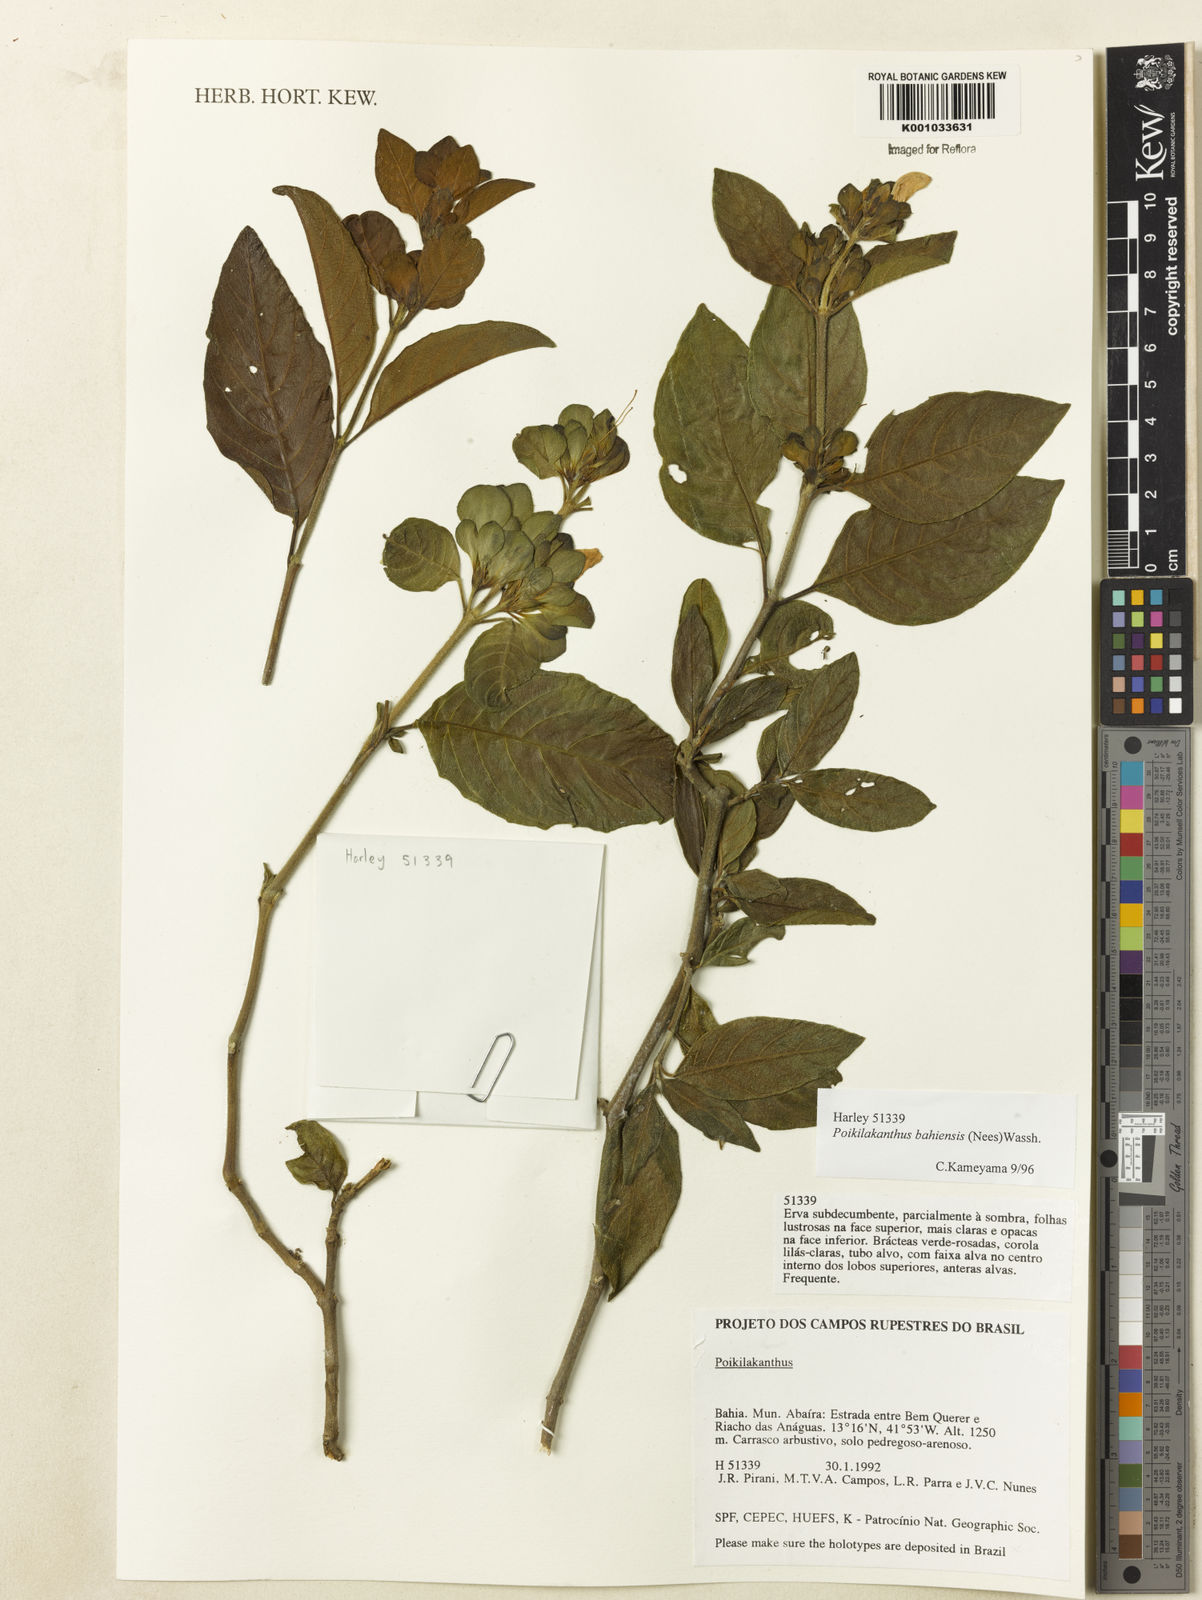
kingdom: Plantae
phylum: Tracheophyta
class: Magnoliopsida
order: Lamiales
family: Acanthaceae
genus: Poikilacanthus
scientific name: Poikilacanthus bahiensis
